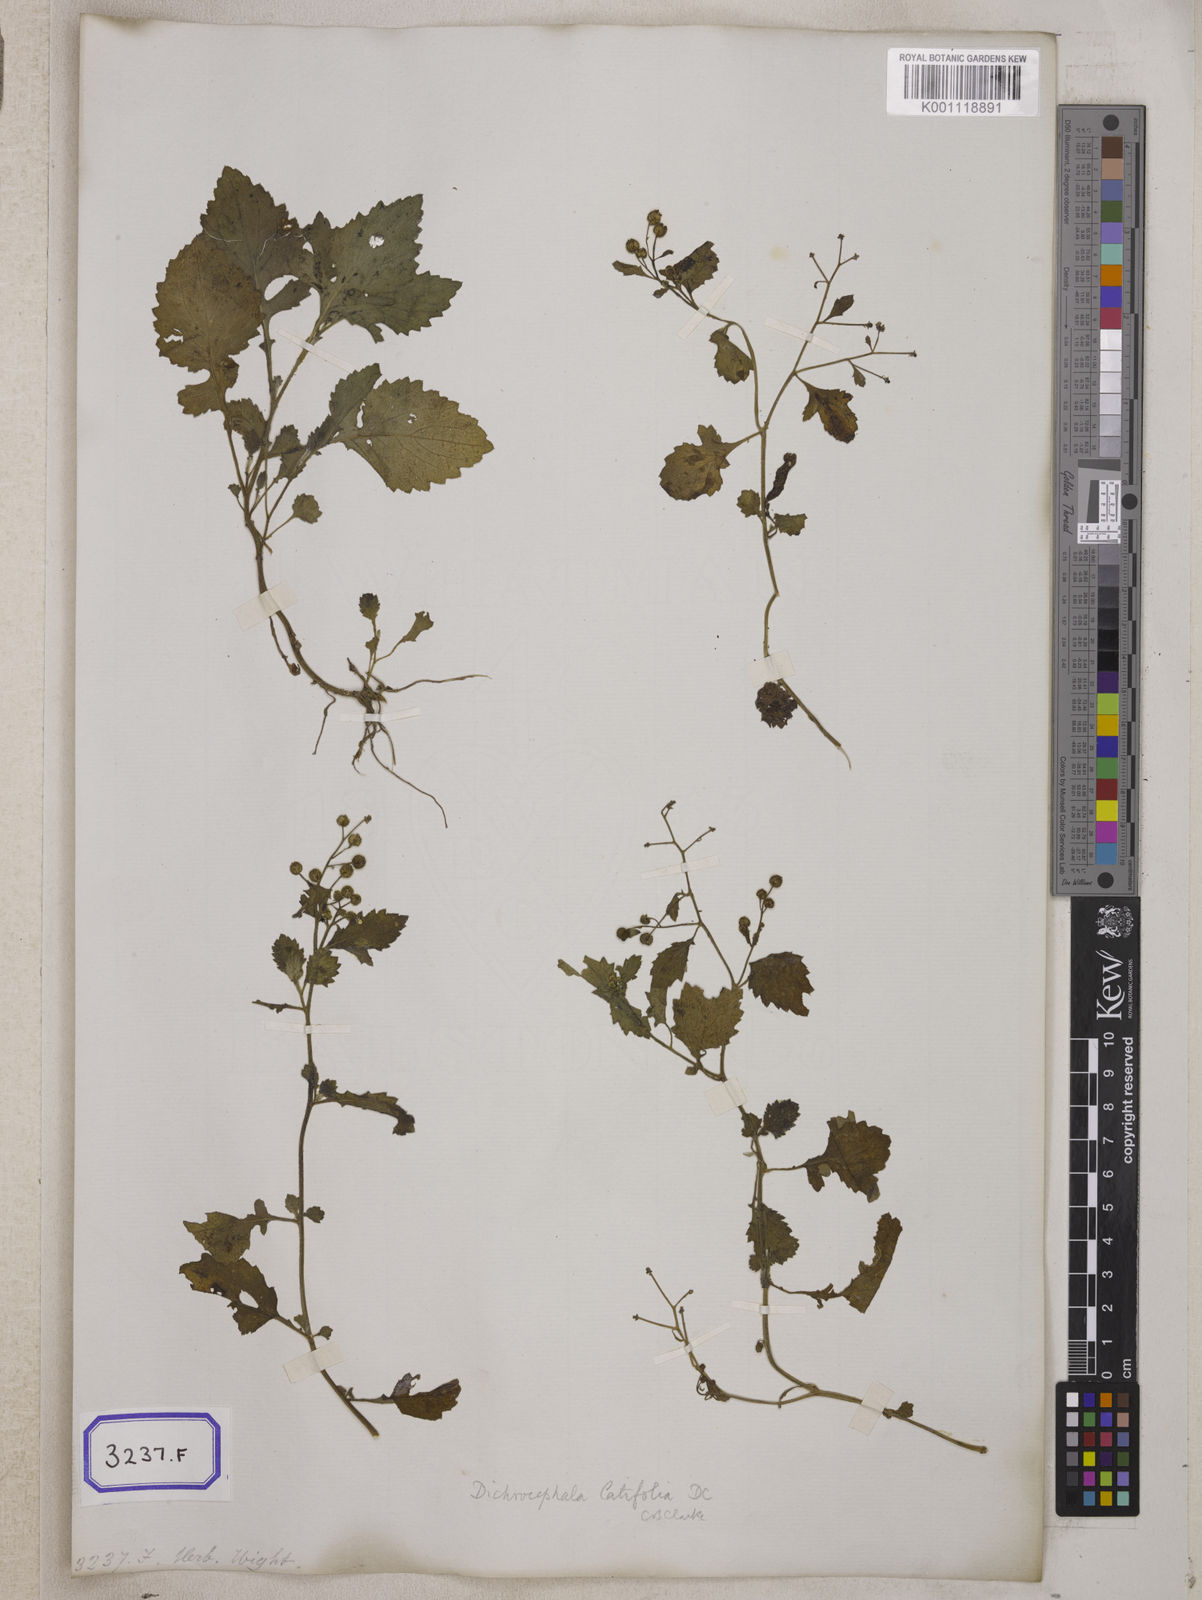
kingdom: Plantae
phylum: Tracheophyta
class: Magnoliopsida
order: Asterales
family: Asteraceae
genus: Thespis
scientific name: Thespis divaricata
